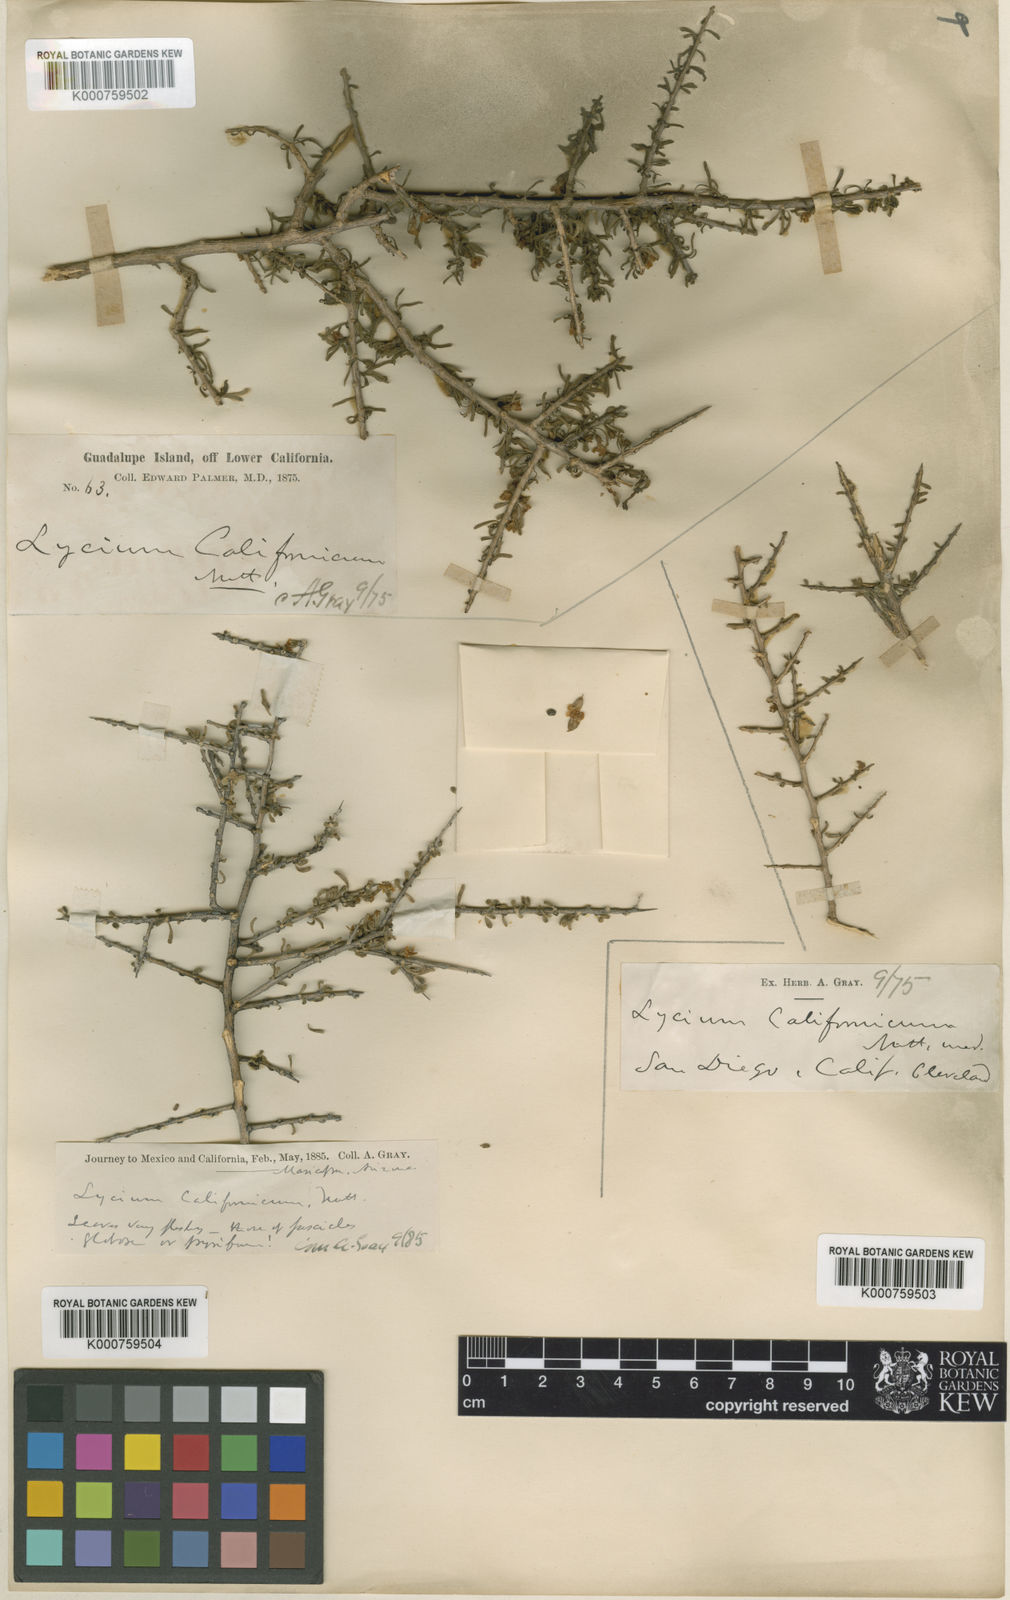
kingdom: Plantae
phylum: Tracheophyta
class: Magnoliopsida
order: Solanales
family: Solanaceae
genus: Lycium
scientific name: Lycium
